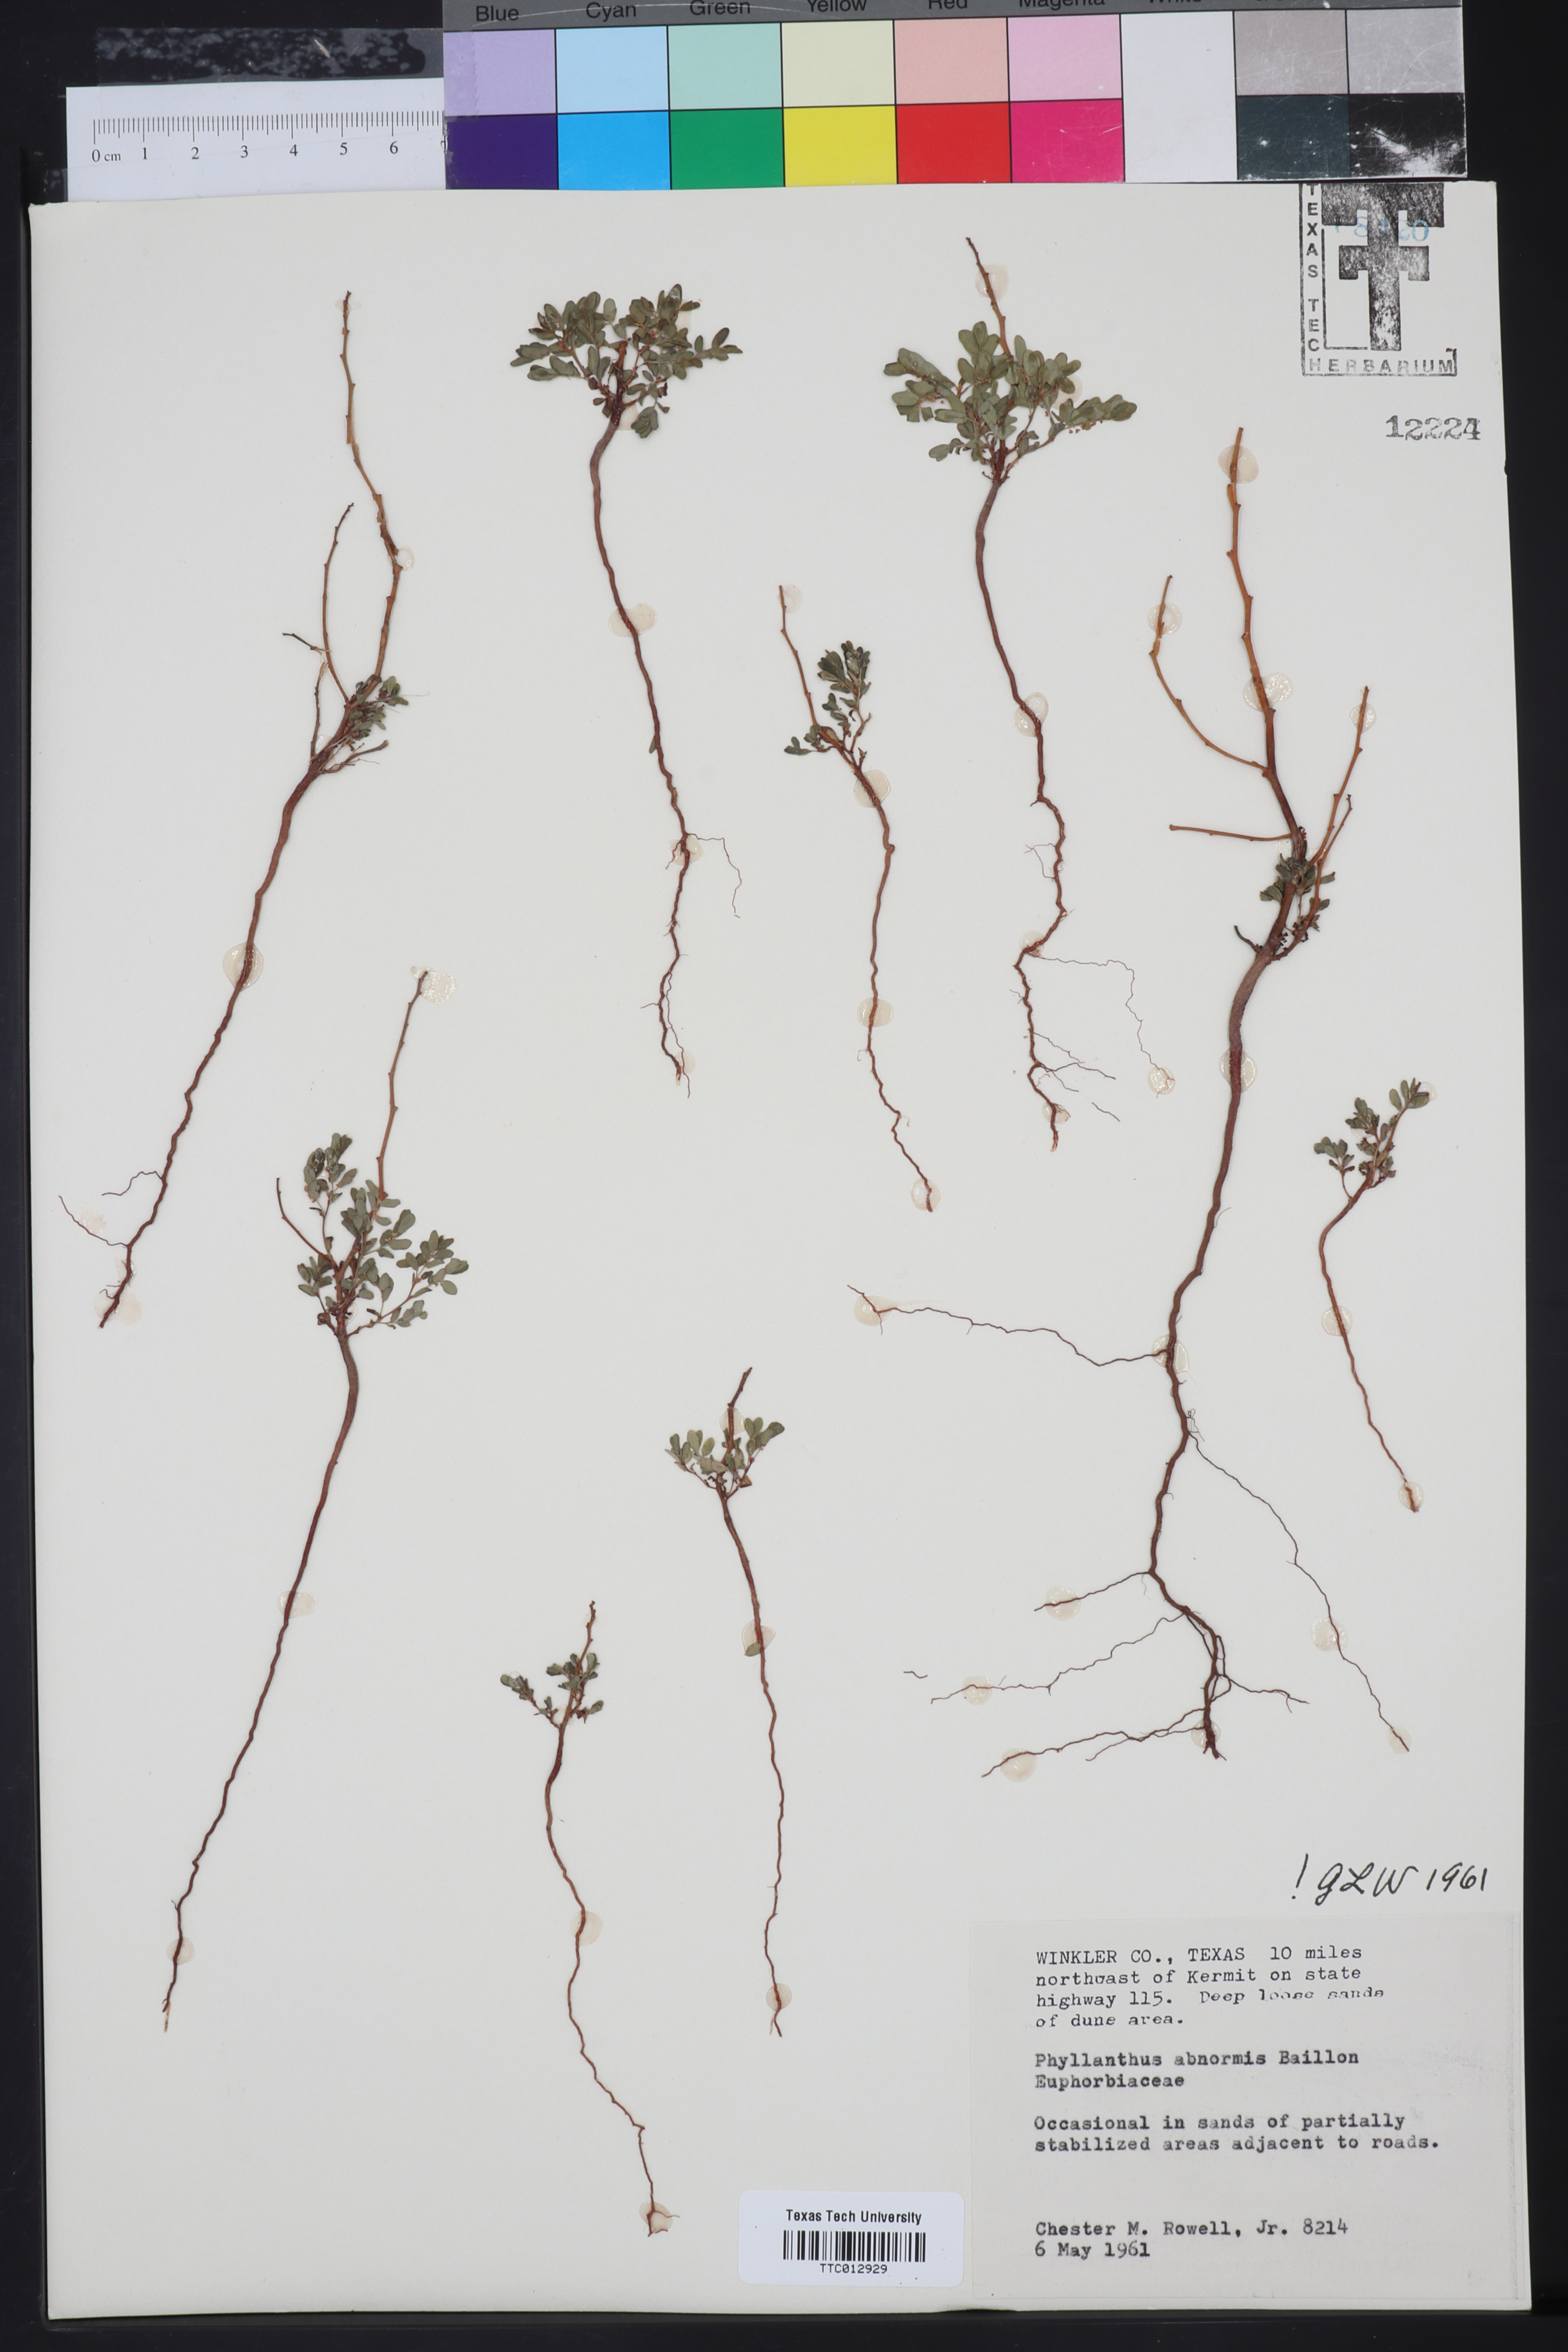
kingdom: Plantae
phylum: Tracheophyta
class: Magnoliopsida
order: Malpighiales
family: Phyllanthaceae
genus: Phyllanthus
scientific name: Phyllanthus abnormis
